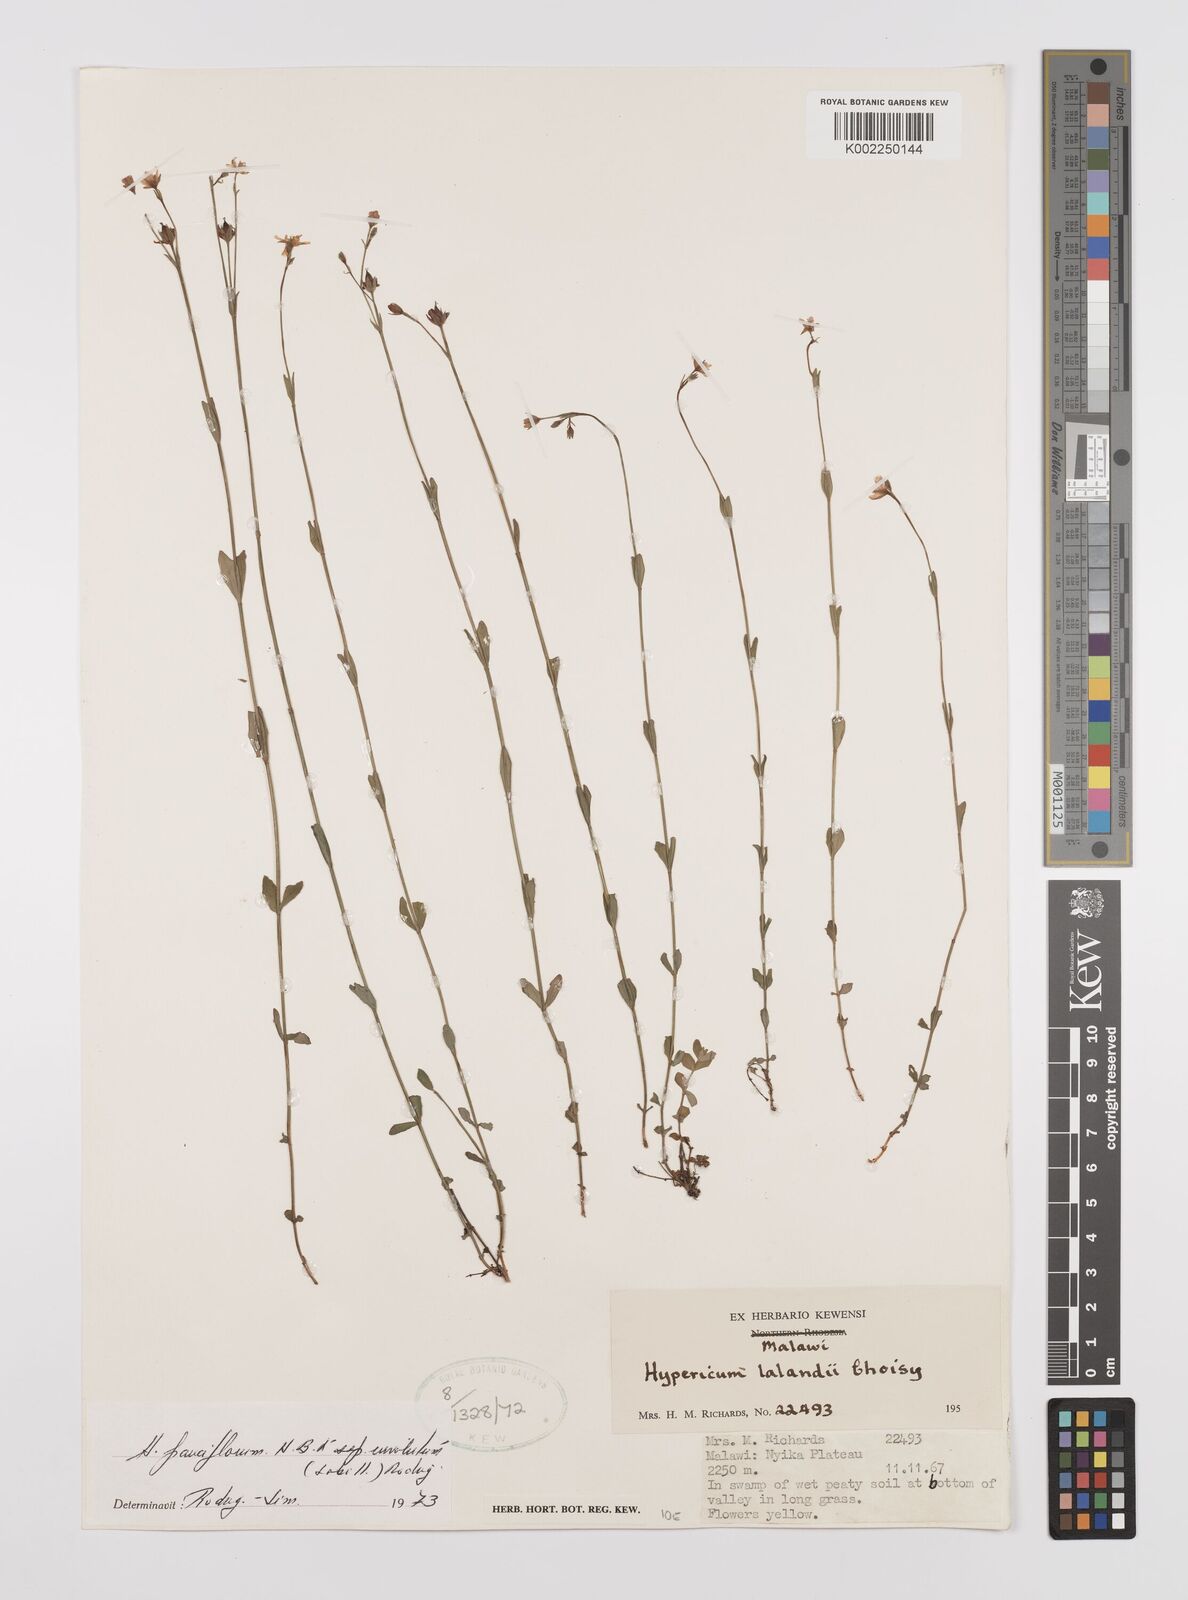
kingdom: Plantae
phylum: Tracheophyta
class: Magnoliopsida
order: Malpighiales
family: Hypericaceae
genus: Hypericum
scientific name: Hypericum lalandii
